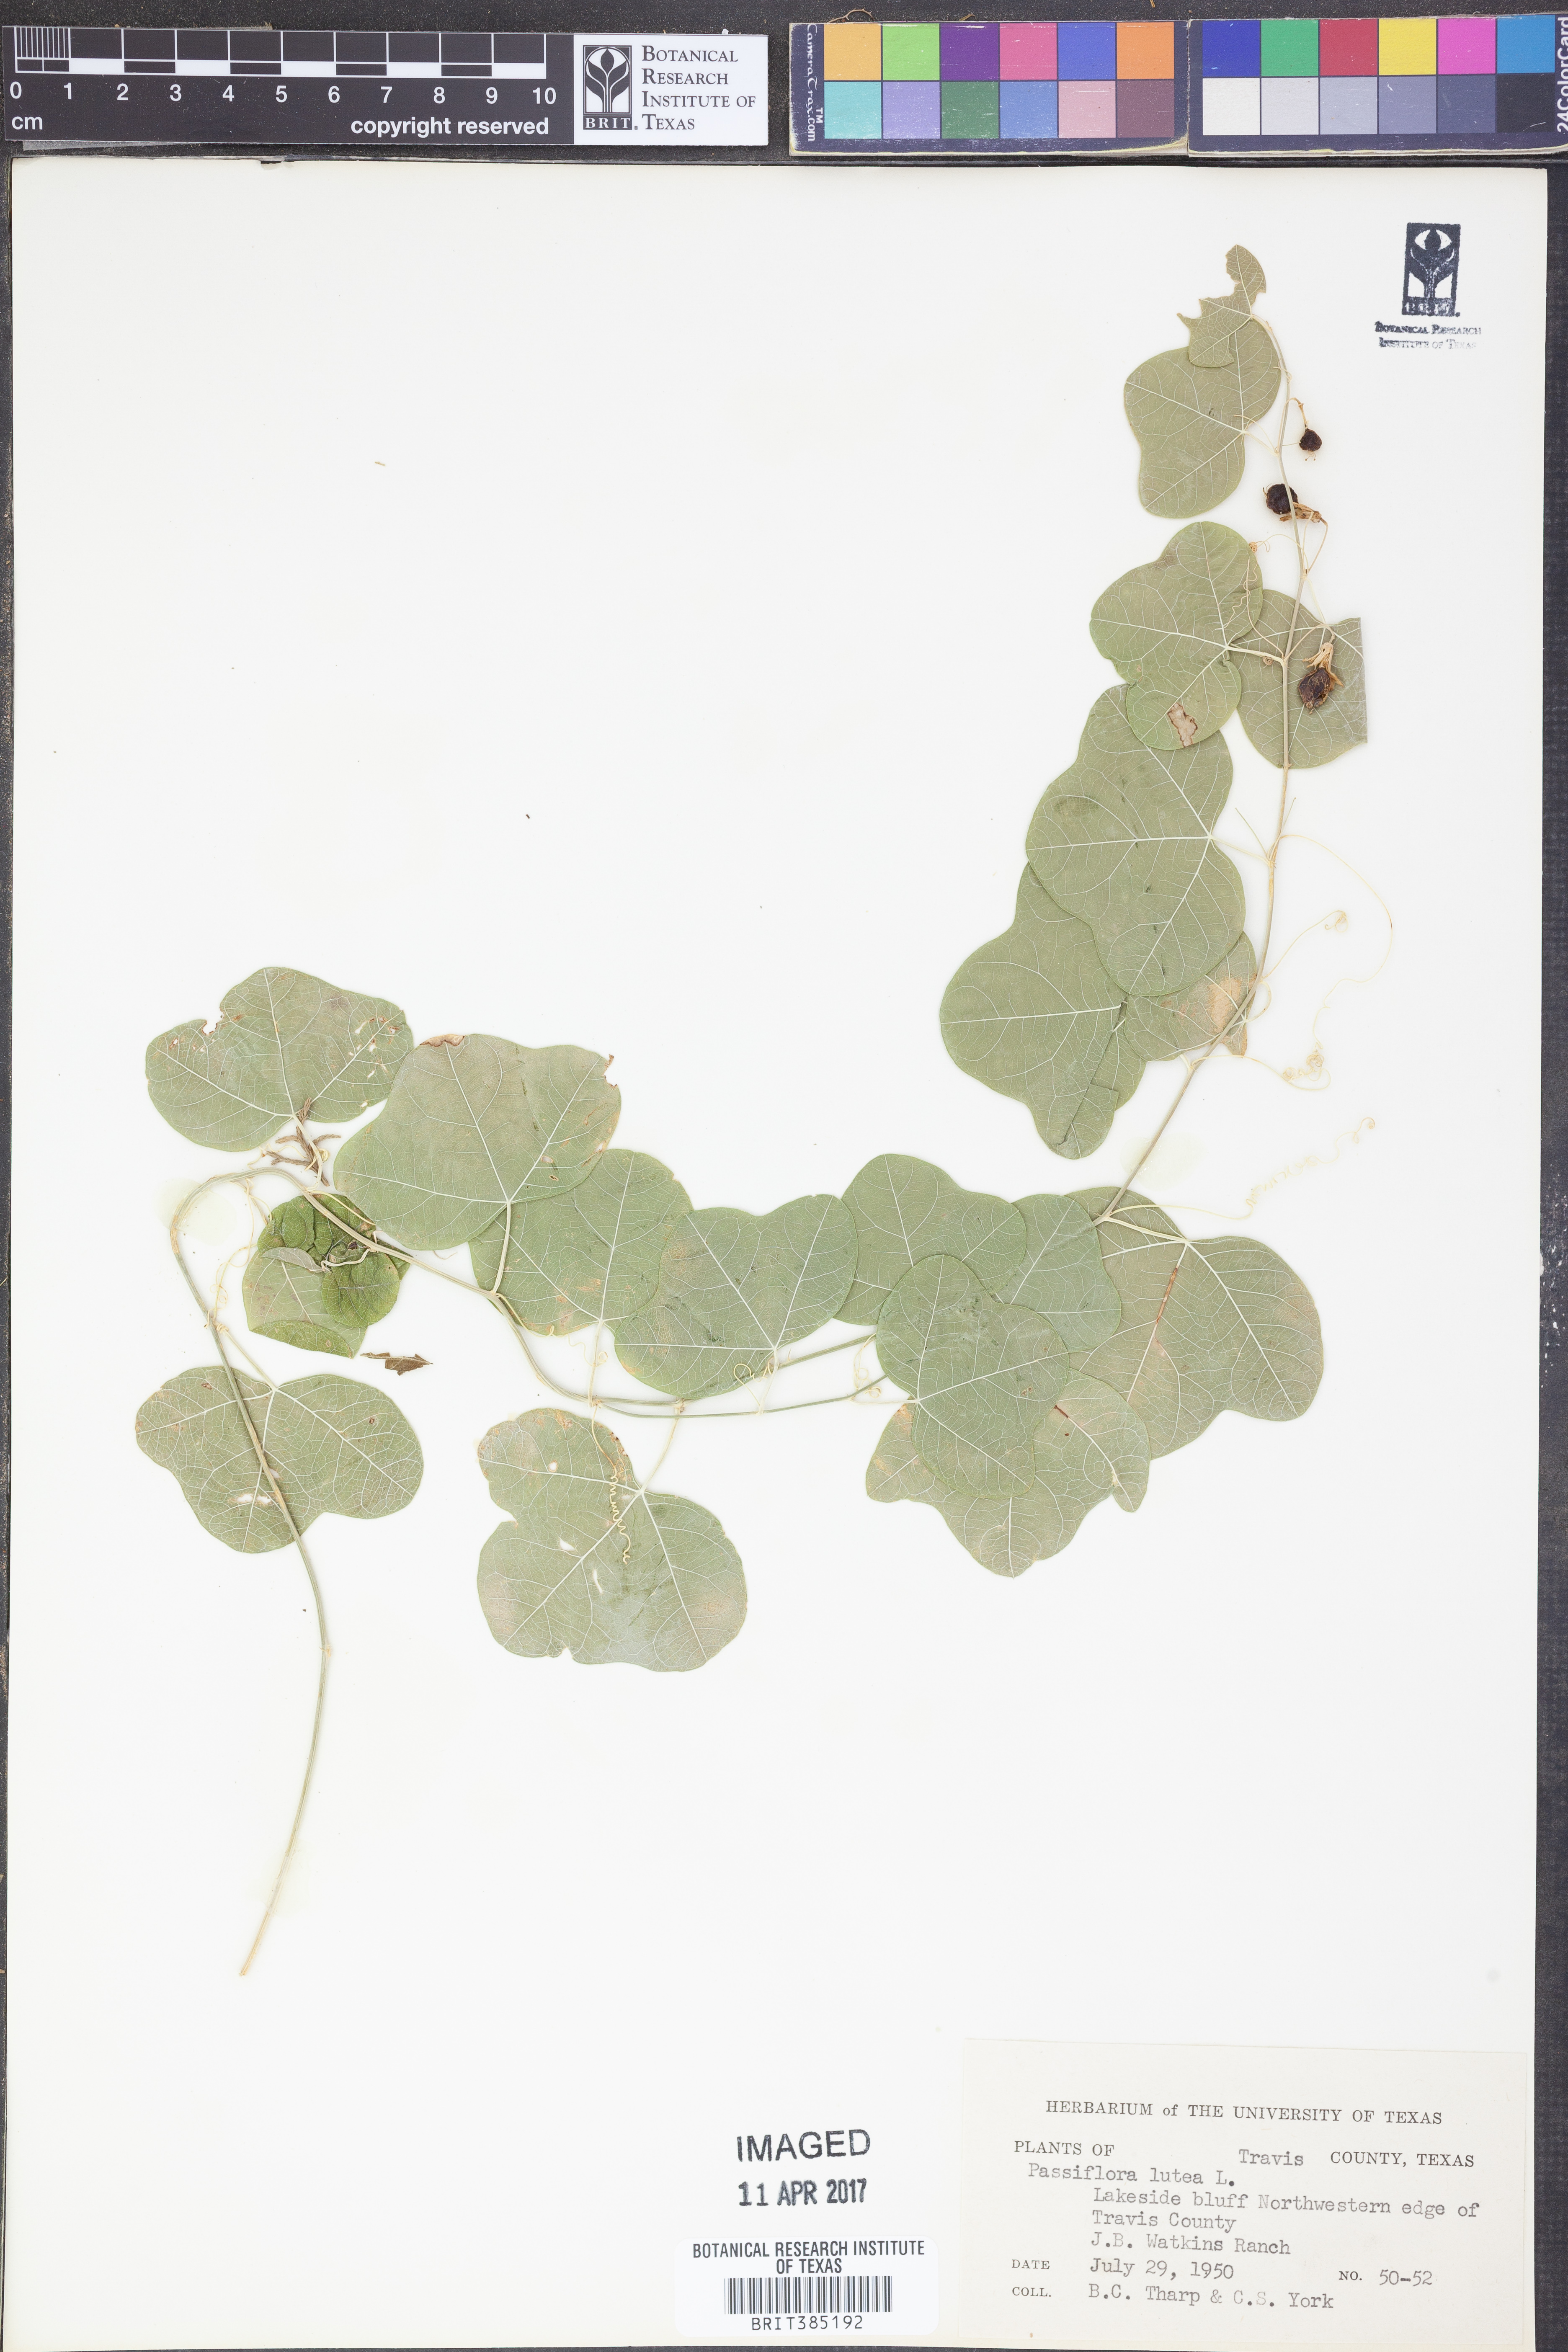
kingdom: Plantae
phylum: Tracheophyta
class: Magnoliopsida
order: Malpighiales
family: Passifloraceae
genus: Passiflora
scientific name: Passiflora lutea
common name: Yellow passionflower
